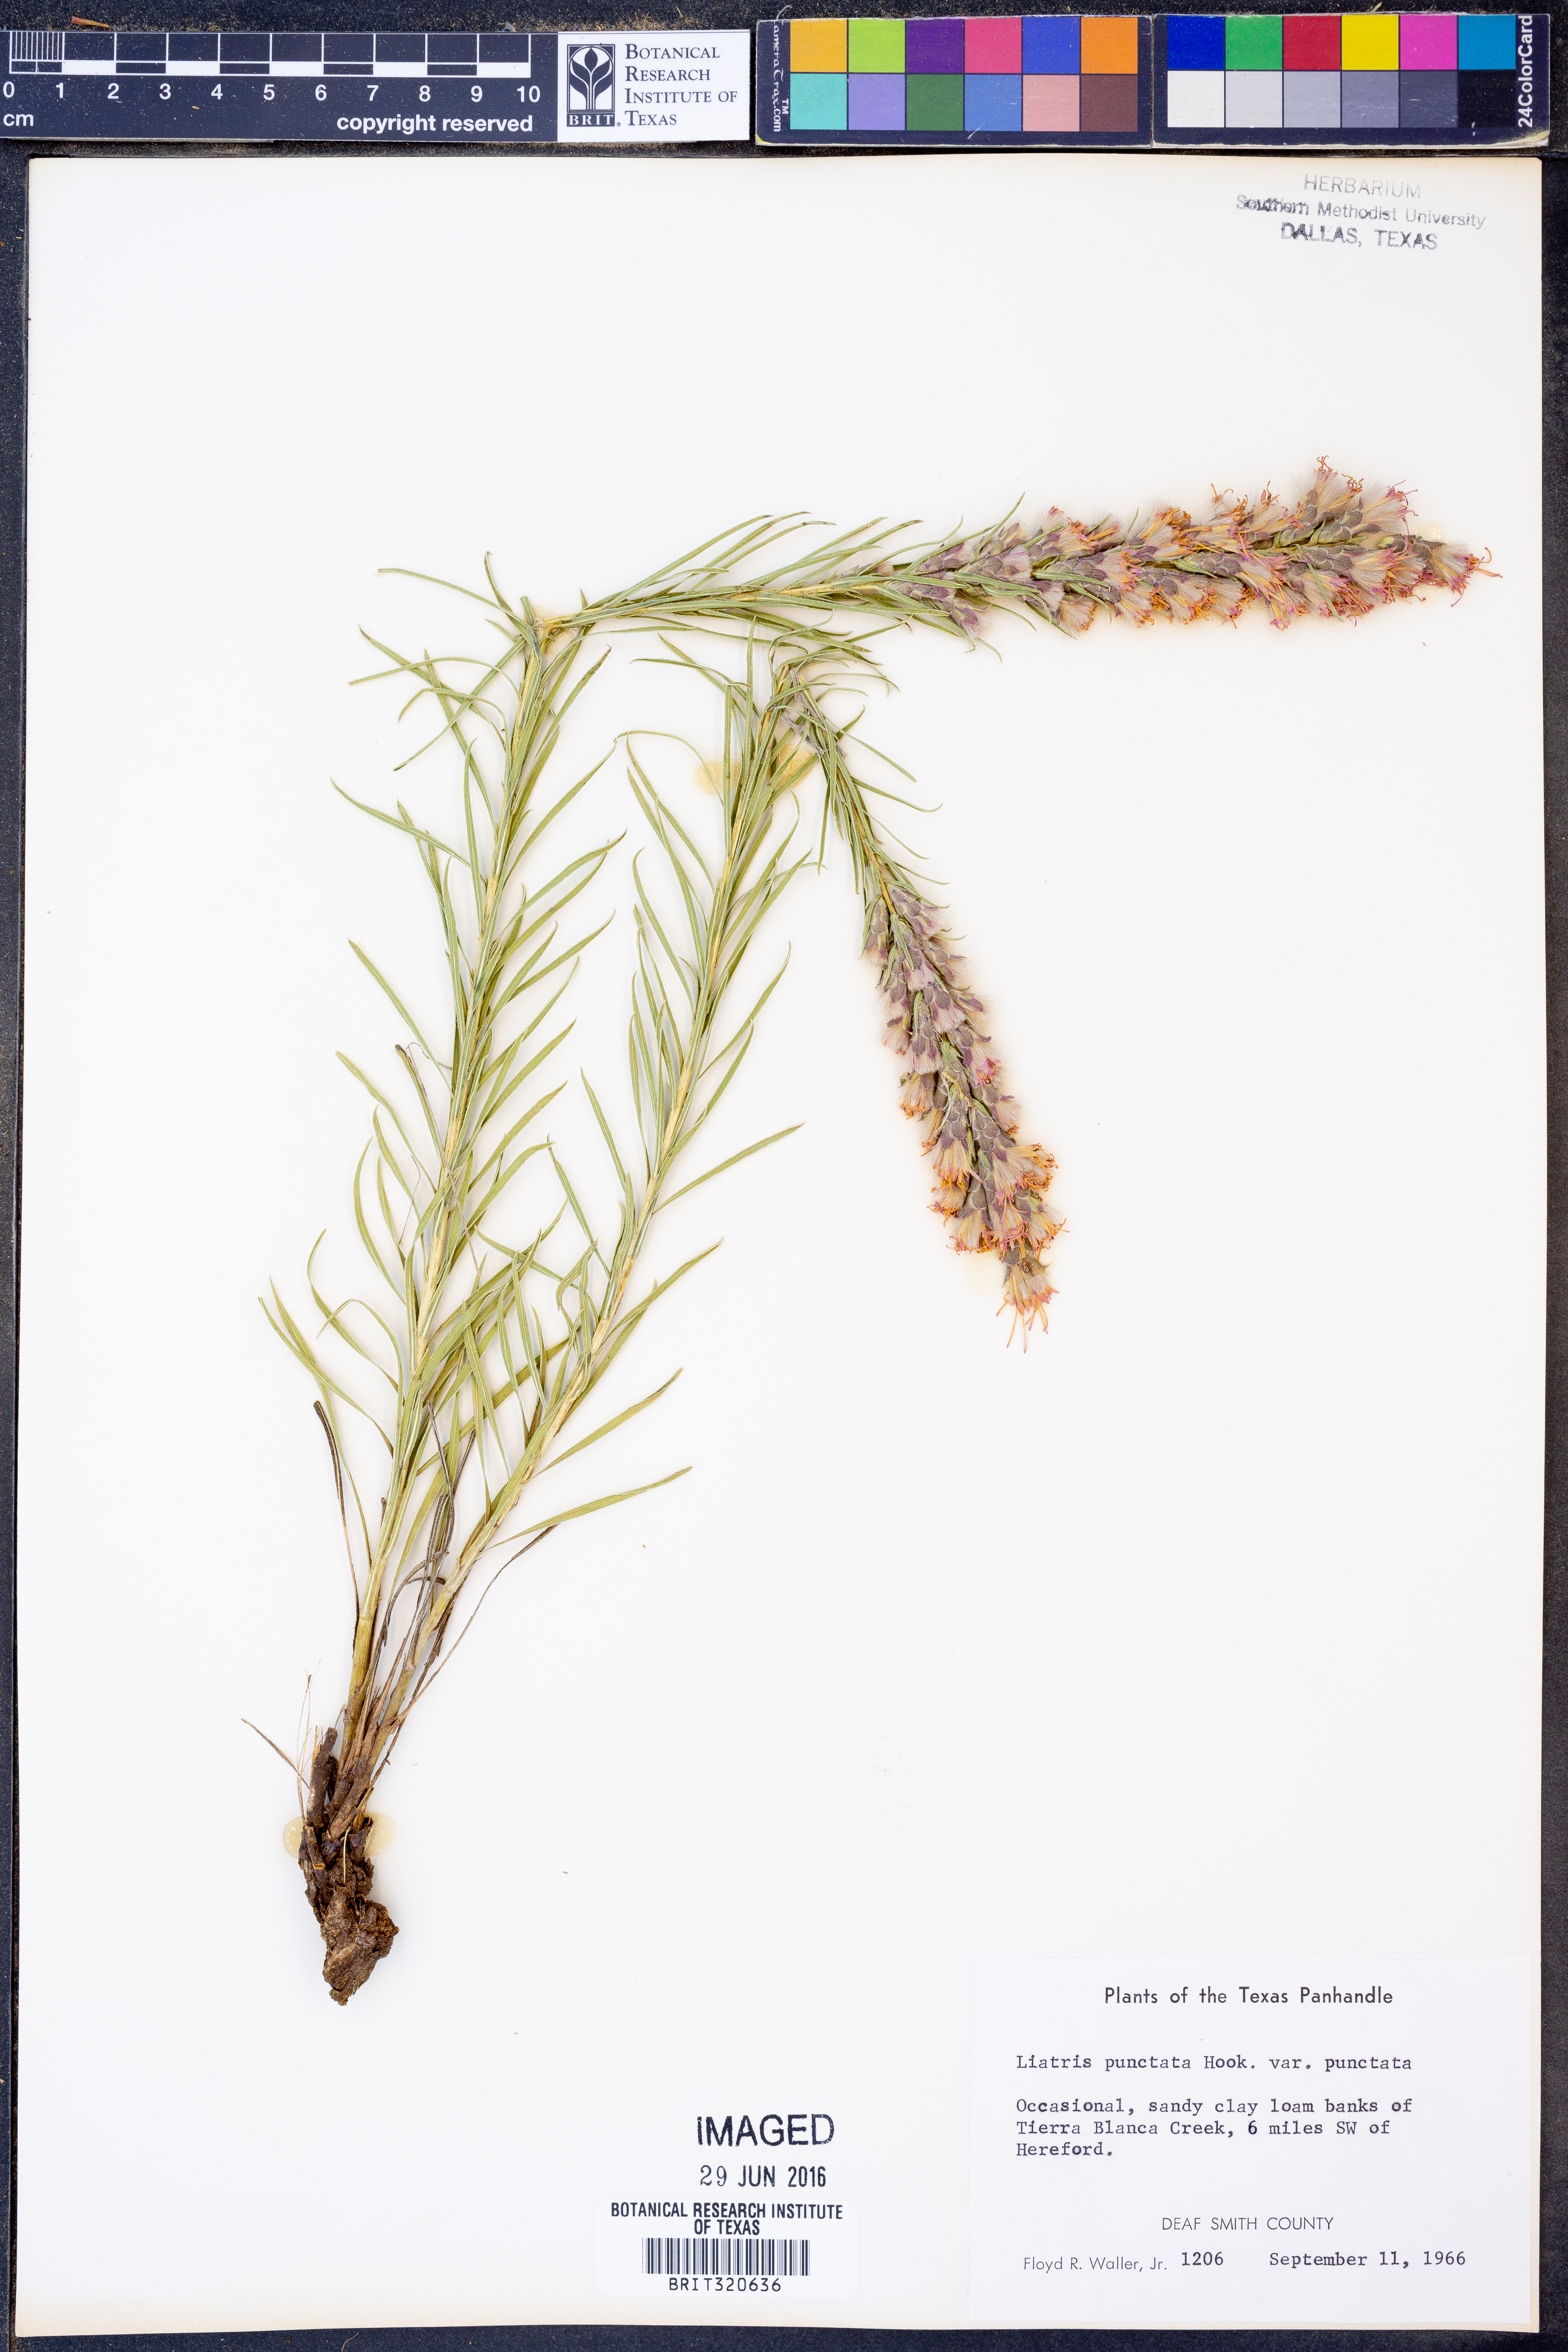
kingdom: Plantae
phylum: Tracheophyta
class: Magnoliopsida
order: Asterales
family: Asteraceae
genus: Liatris
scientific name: Liatris punctata
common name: Dotted gayfeather
